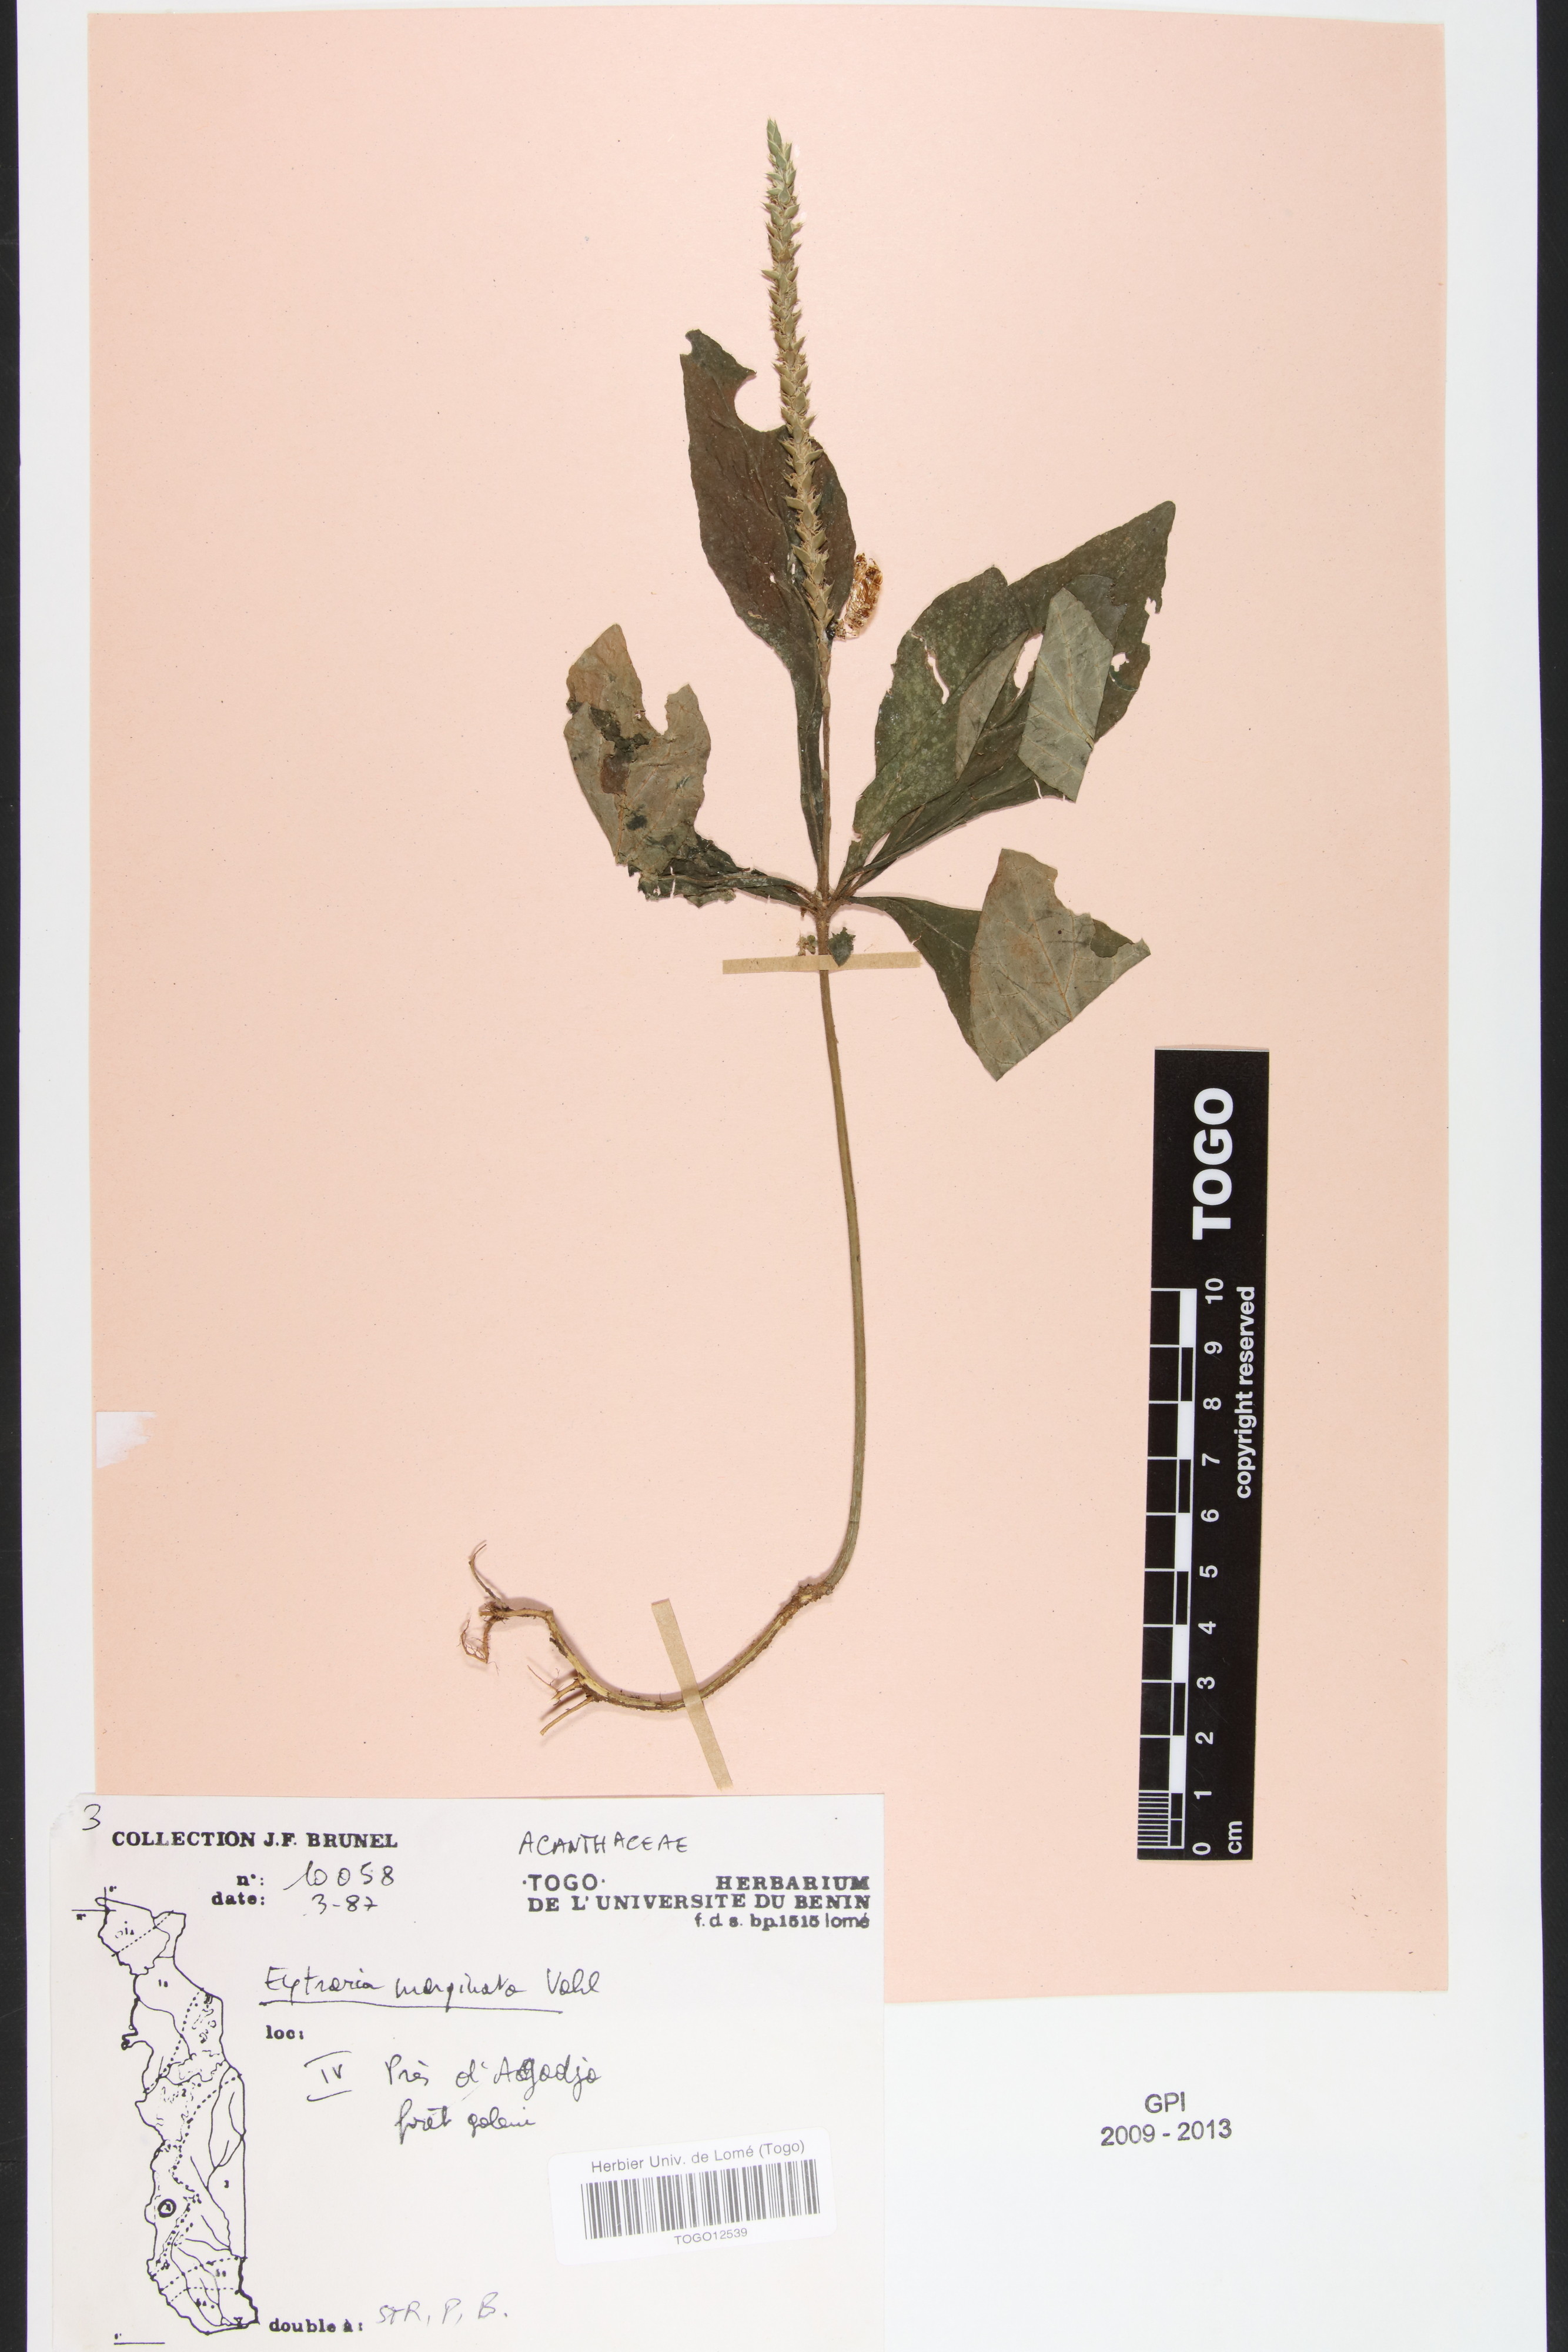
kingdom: Plantae
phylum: Tracheophyta
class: Magnoliopsida
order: Lamiales
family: Acanthaceae
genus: Elytraria
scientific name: Elytraria marginata
